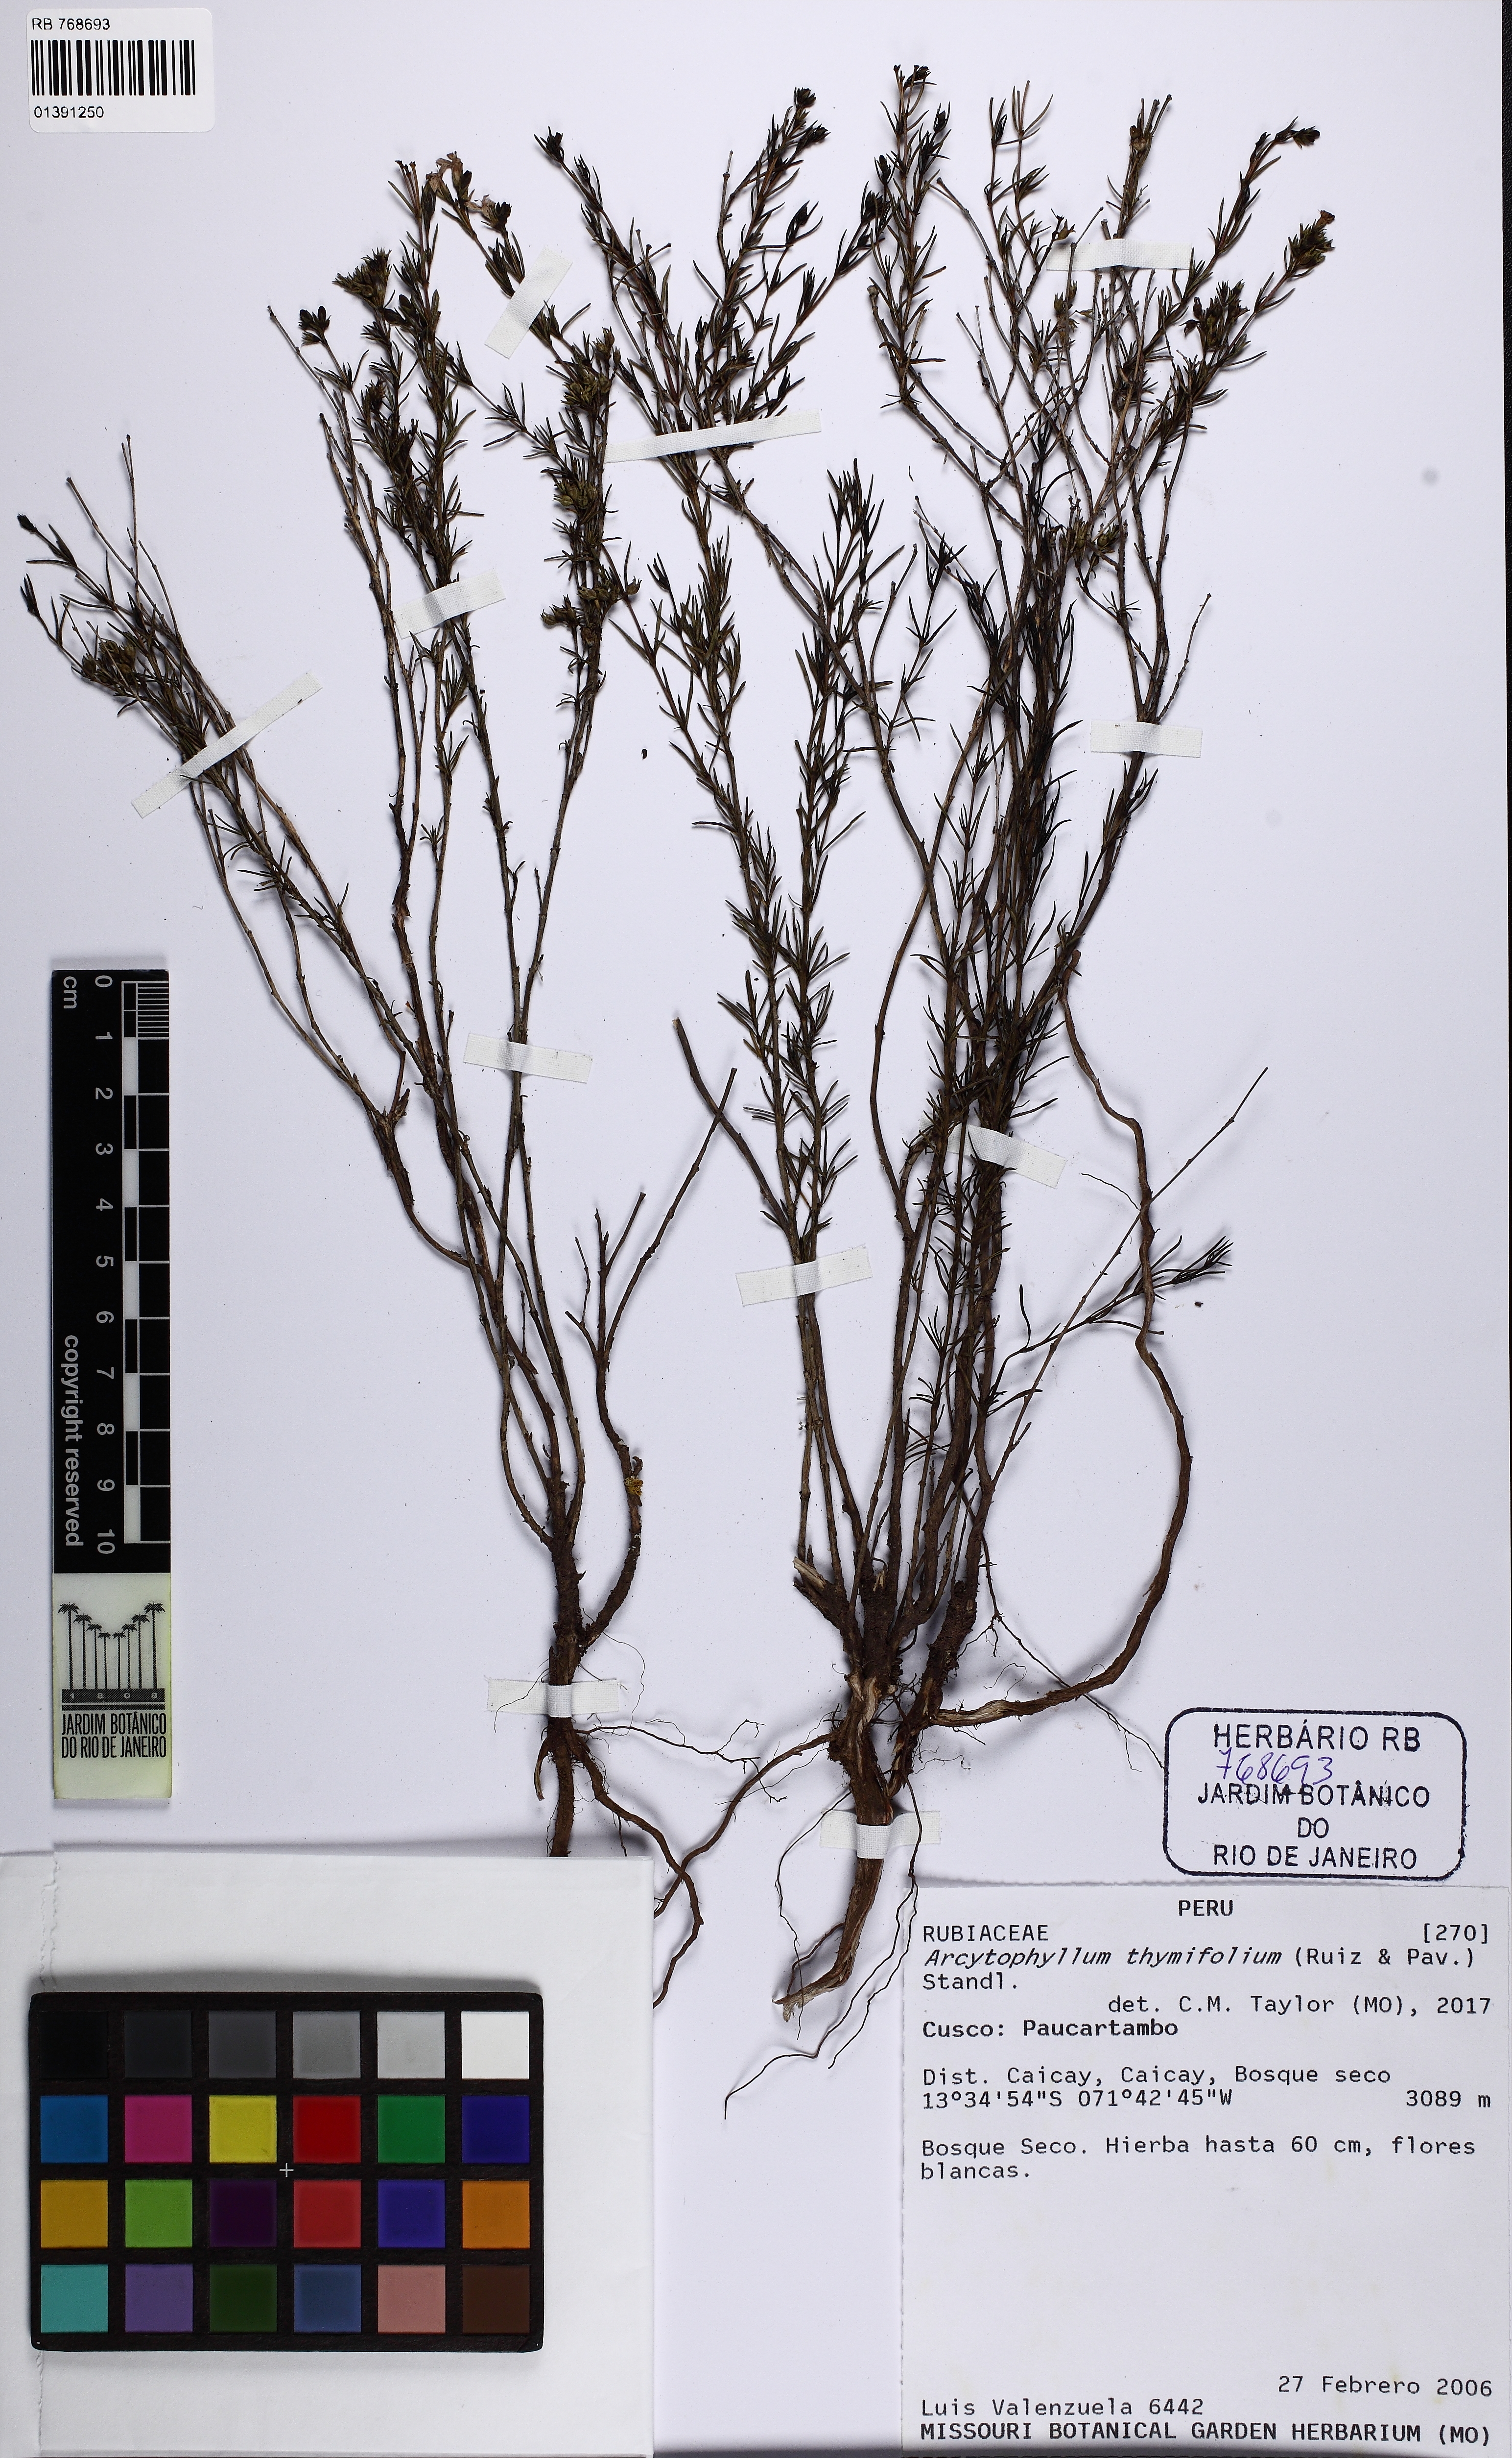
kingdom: Plantae
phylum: Tracheophyta
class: Magnoliopsida
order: Gentianales
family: Rubiaceae
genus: Arcytophyllum
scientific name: Arcytophyllum thymifolium
